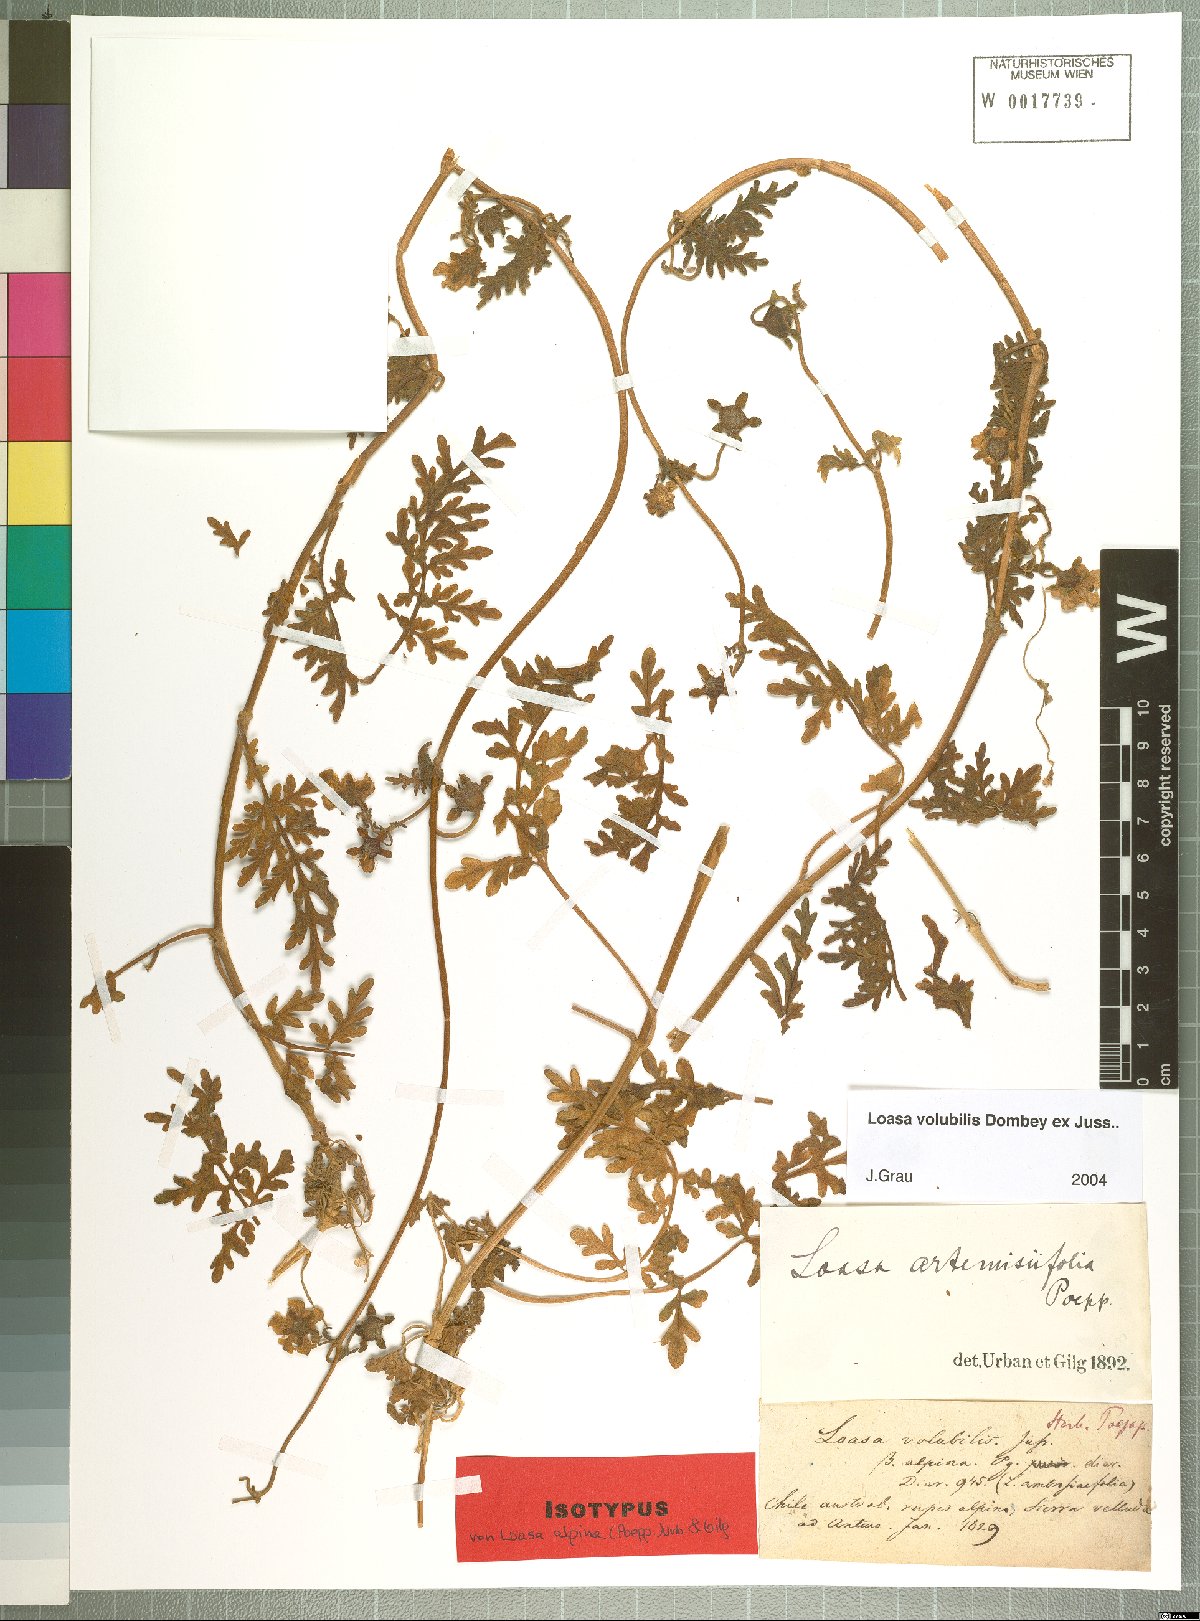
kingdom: Plantae
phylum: Tracheophyta
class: Magnoliopsida
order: Cornales
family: Loasaceae
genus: Pinnasa
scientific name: Pinnasa volubilis
